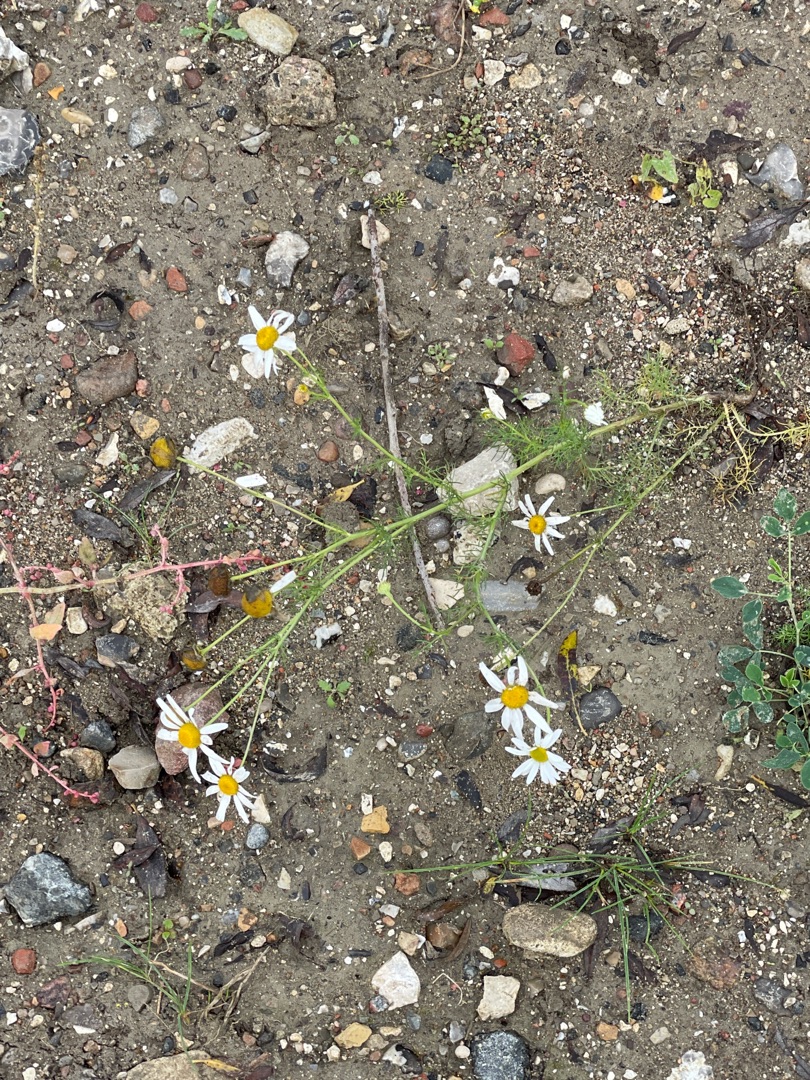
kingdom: Plantae
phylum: Tracheophyta
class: Magnoliopsida
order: Asterales
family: Asteraceae
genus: Tripleurospermum
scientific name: Tripleurospermum inodorum
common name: Lugtløs kamille
